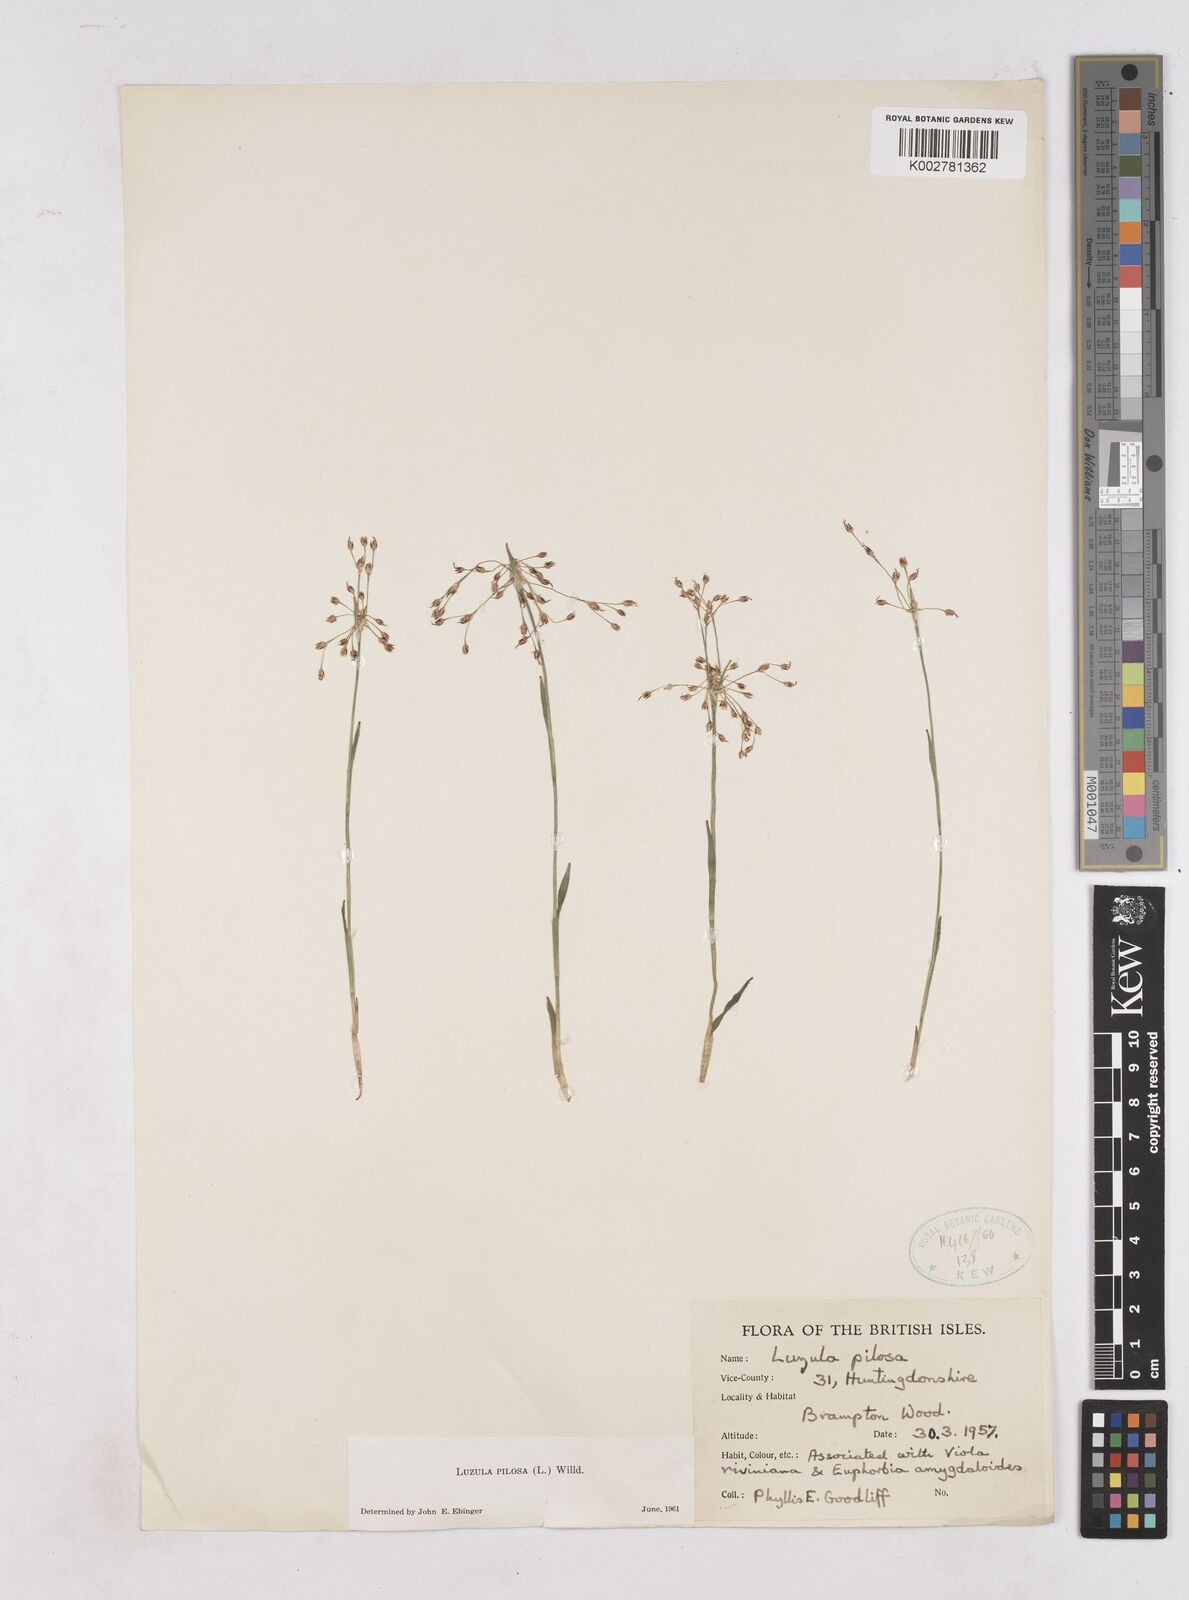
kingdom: Plantae
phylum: Tracheophyta
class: Liliopsida
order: Poales
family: Juncaceae
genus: Luzula
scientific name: Luzula pilosa
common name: Hairy wood-rush
